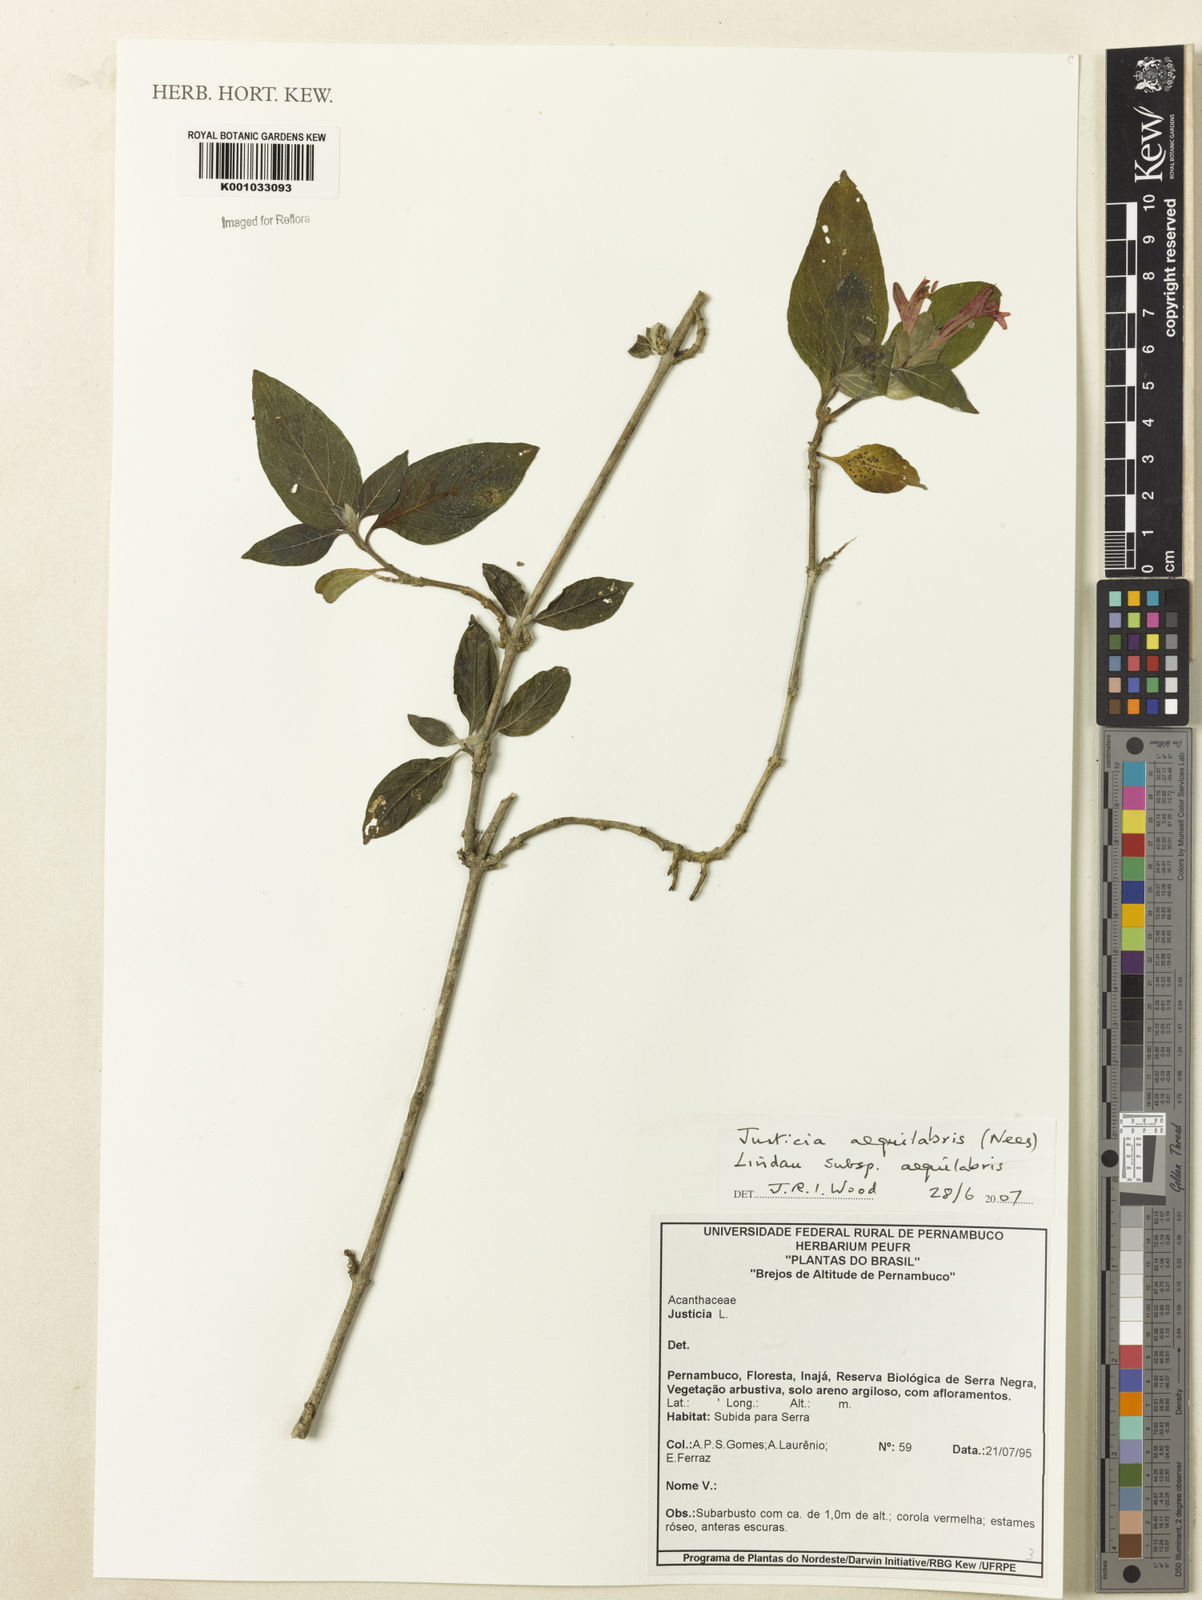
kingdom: Plantae
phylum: Tracheophyta
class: Magnoliopsida
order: Lamiales
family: Acanthaceae
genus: Justicia
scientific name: Justicia aequalis
